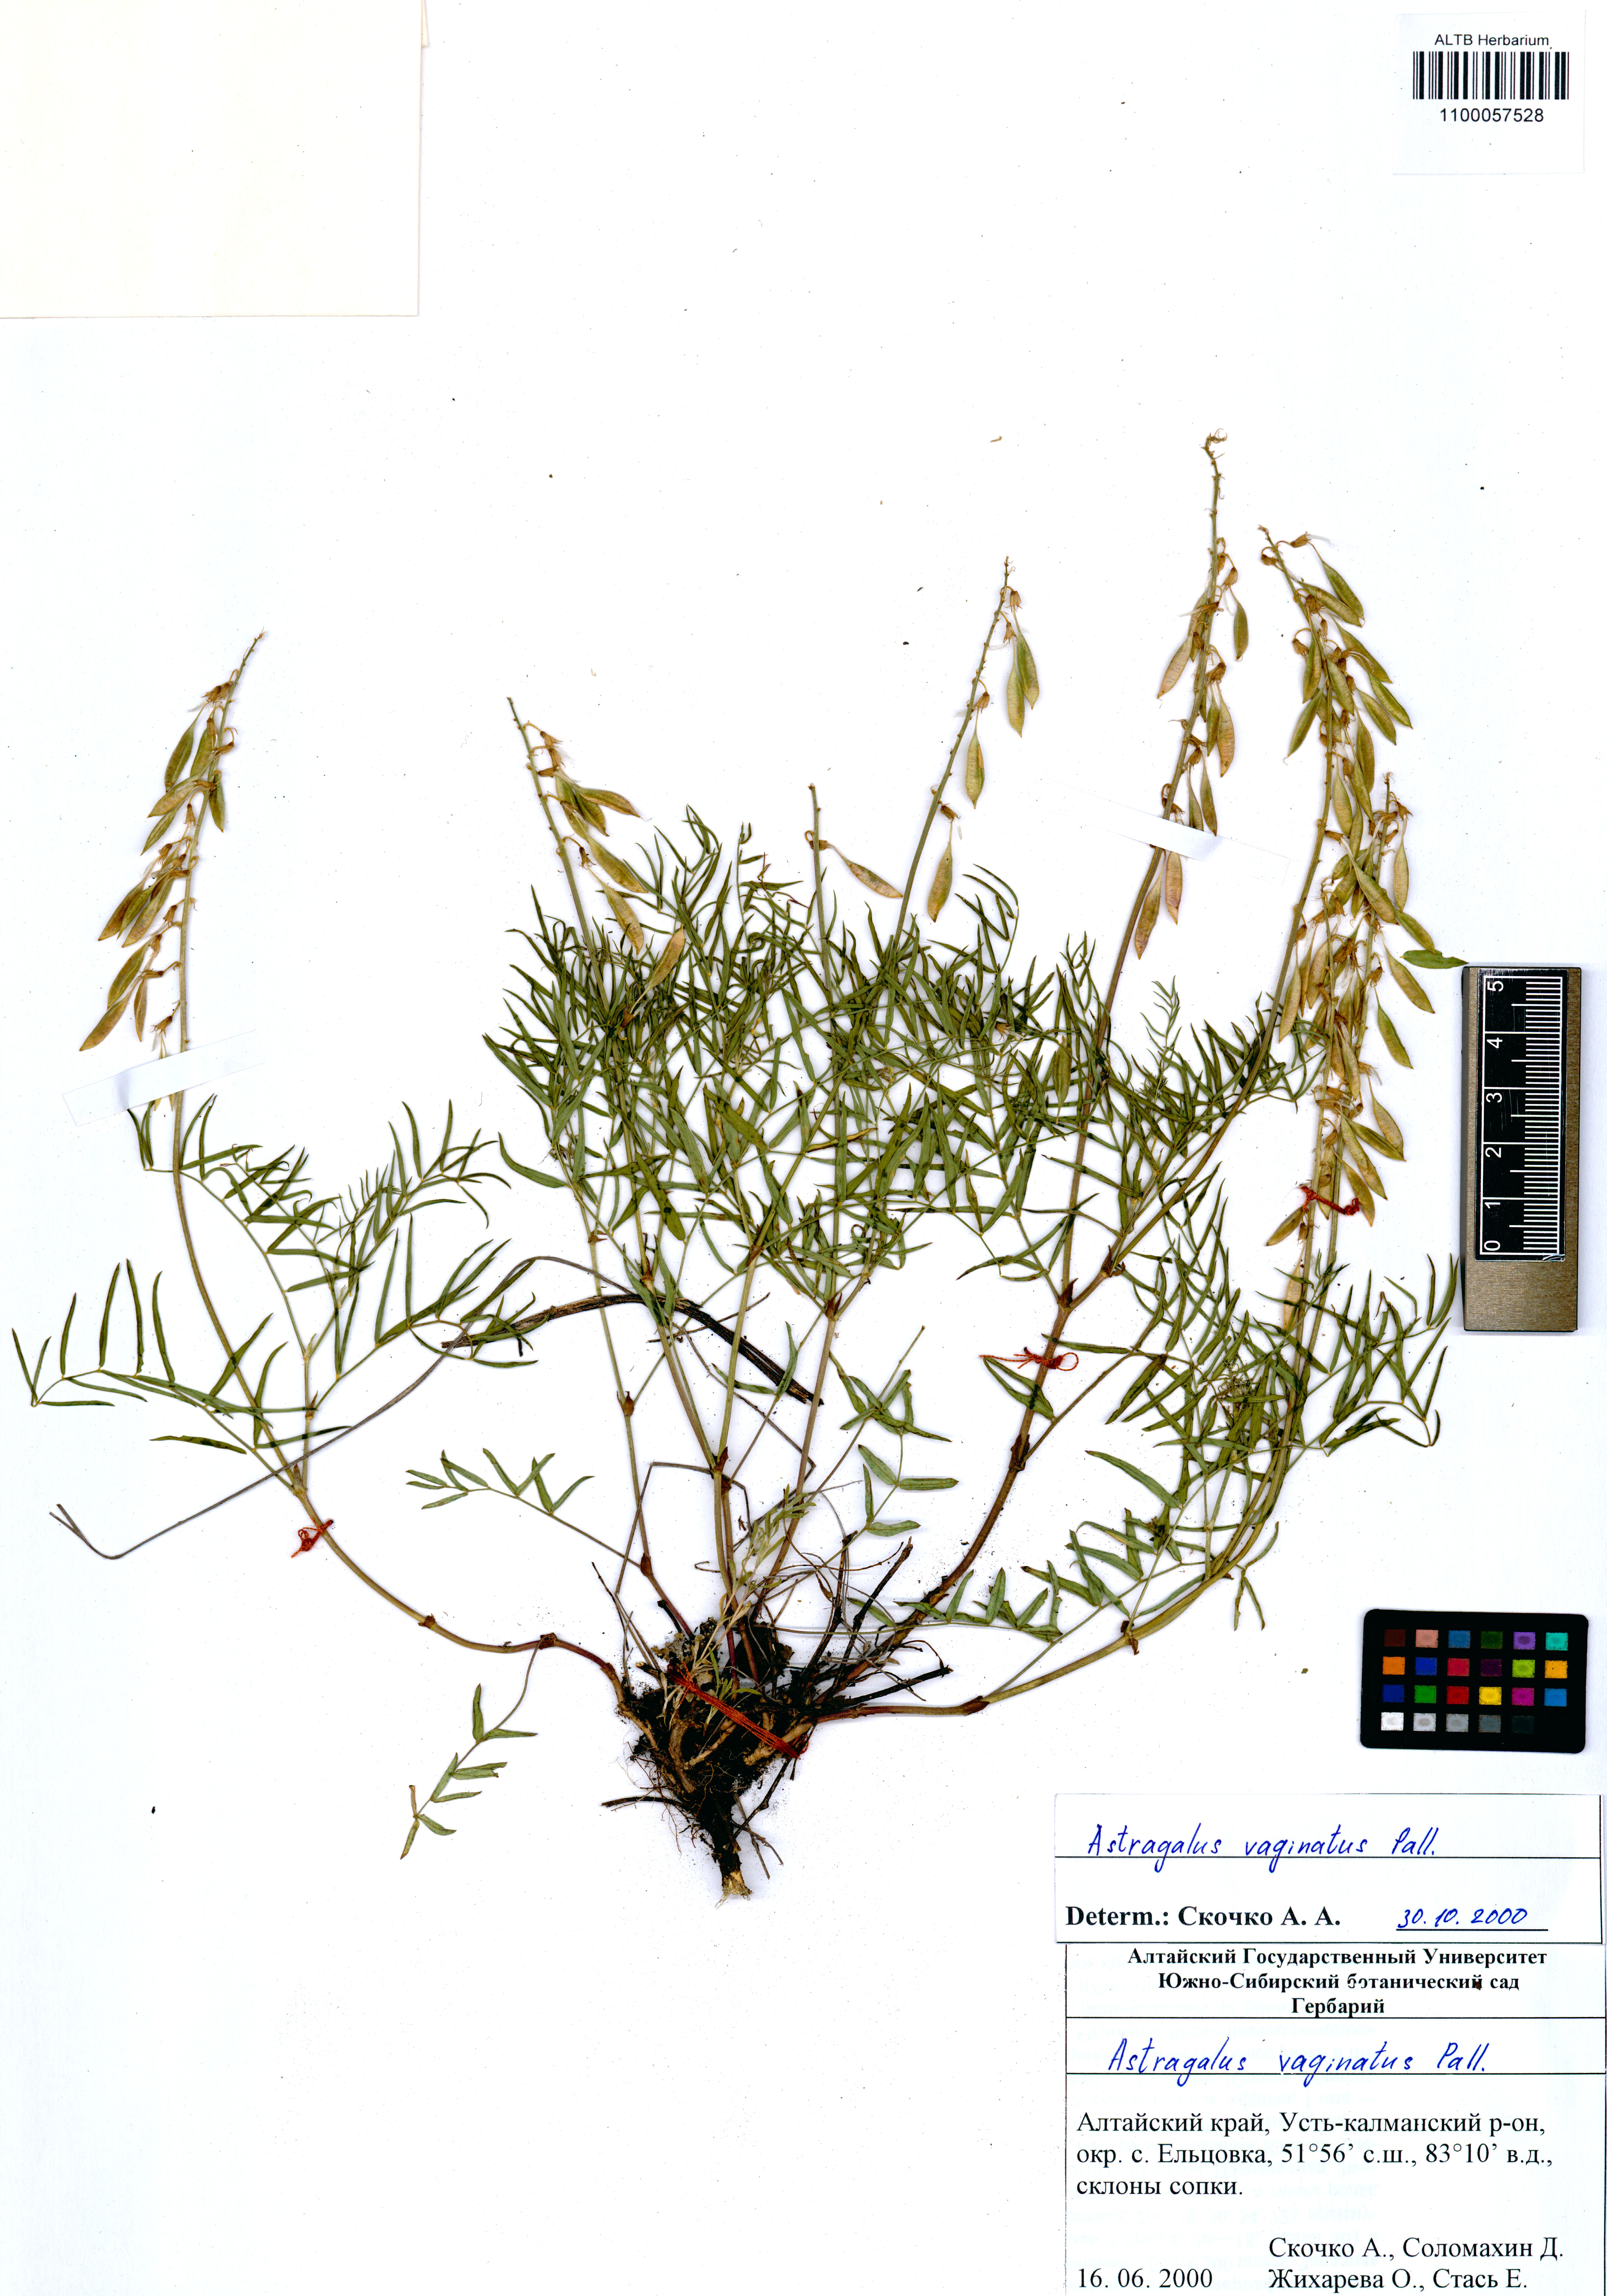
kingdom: Plantae
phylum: Tracheophyta
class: Magnoliopsida
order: Fabales
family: Fabaceae
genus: Astragalus
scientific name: Astragalus vaginatus
